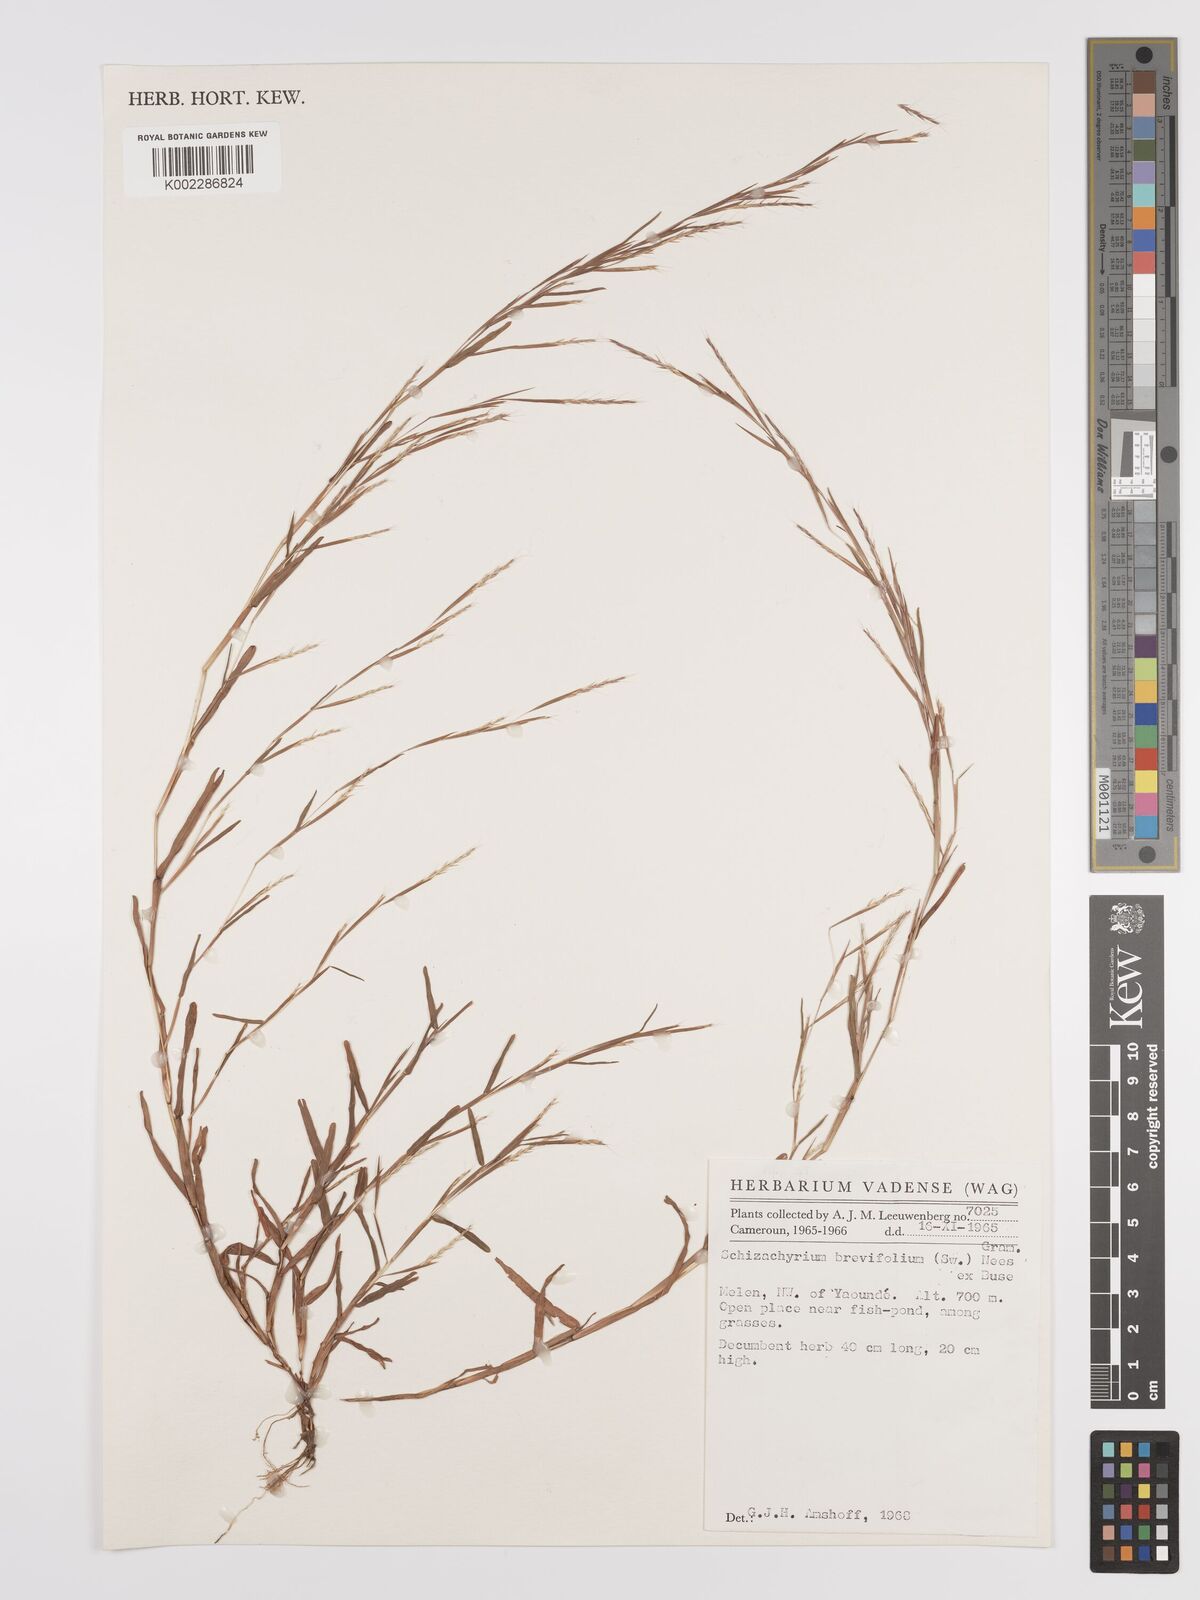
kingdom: Plantae
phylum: Tracheophyta
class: Liliopsida
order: Poales
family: Poaceae
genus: Schizachyrium
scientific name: Schizachyrium maclaudii
